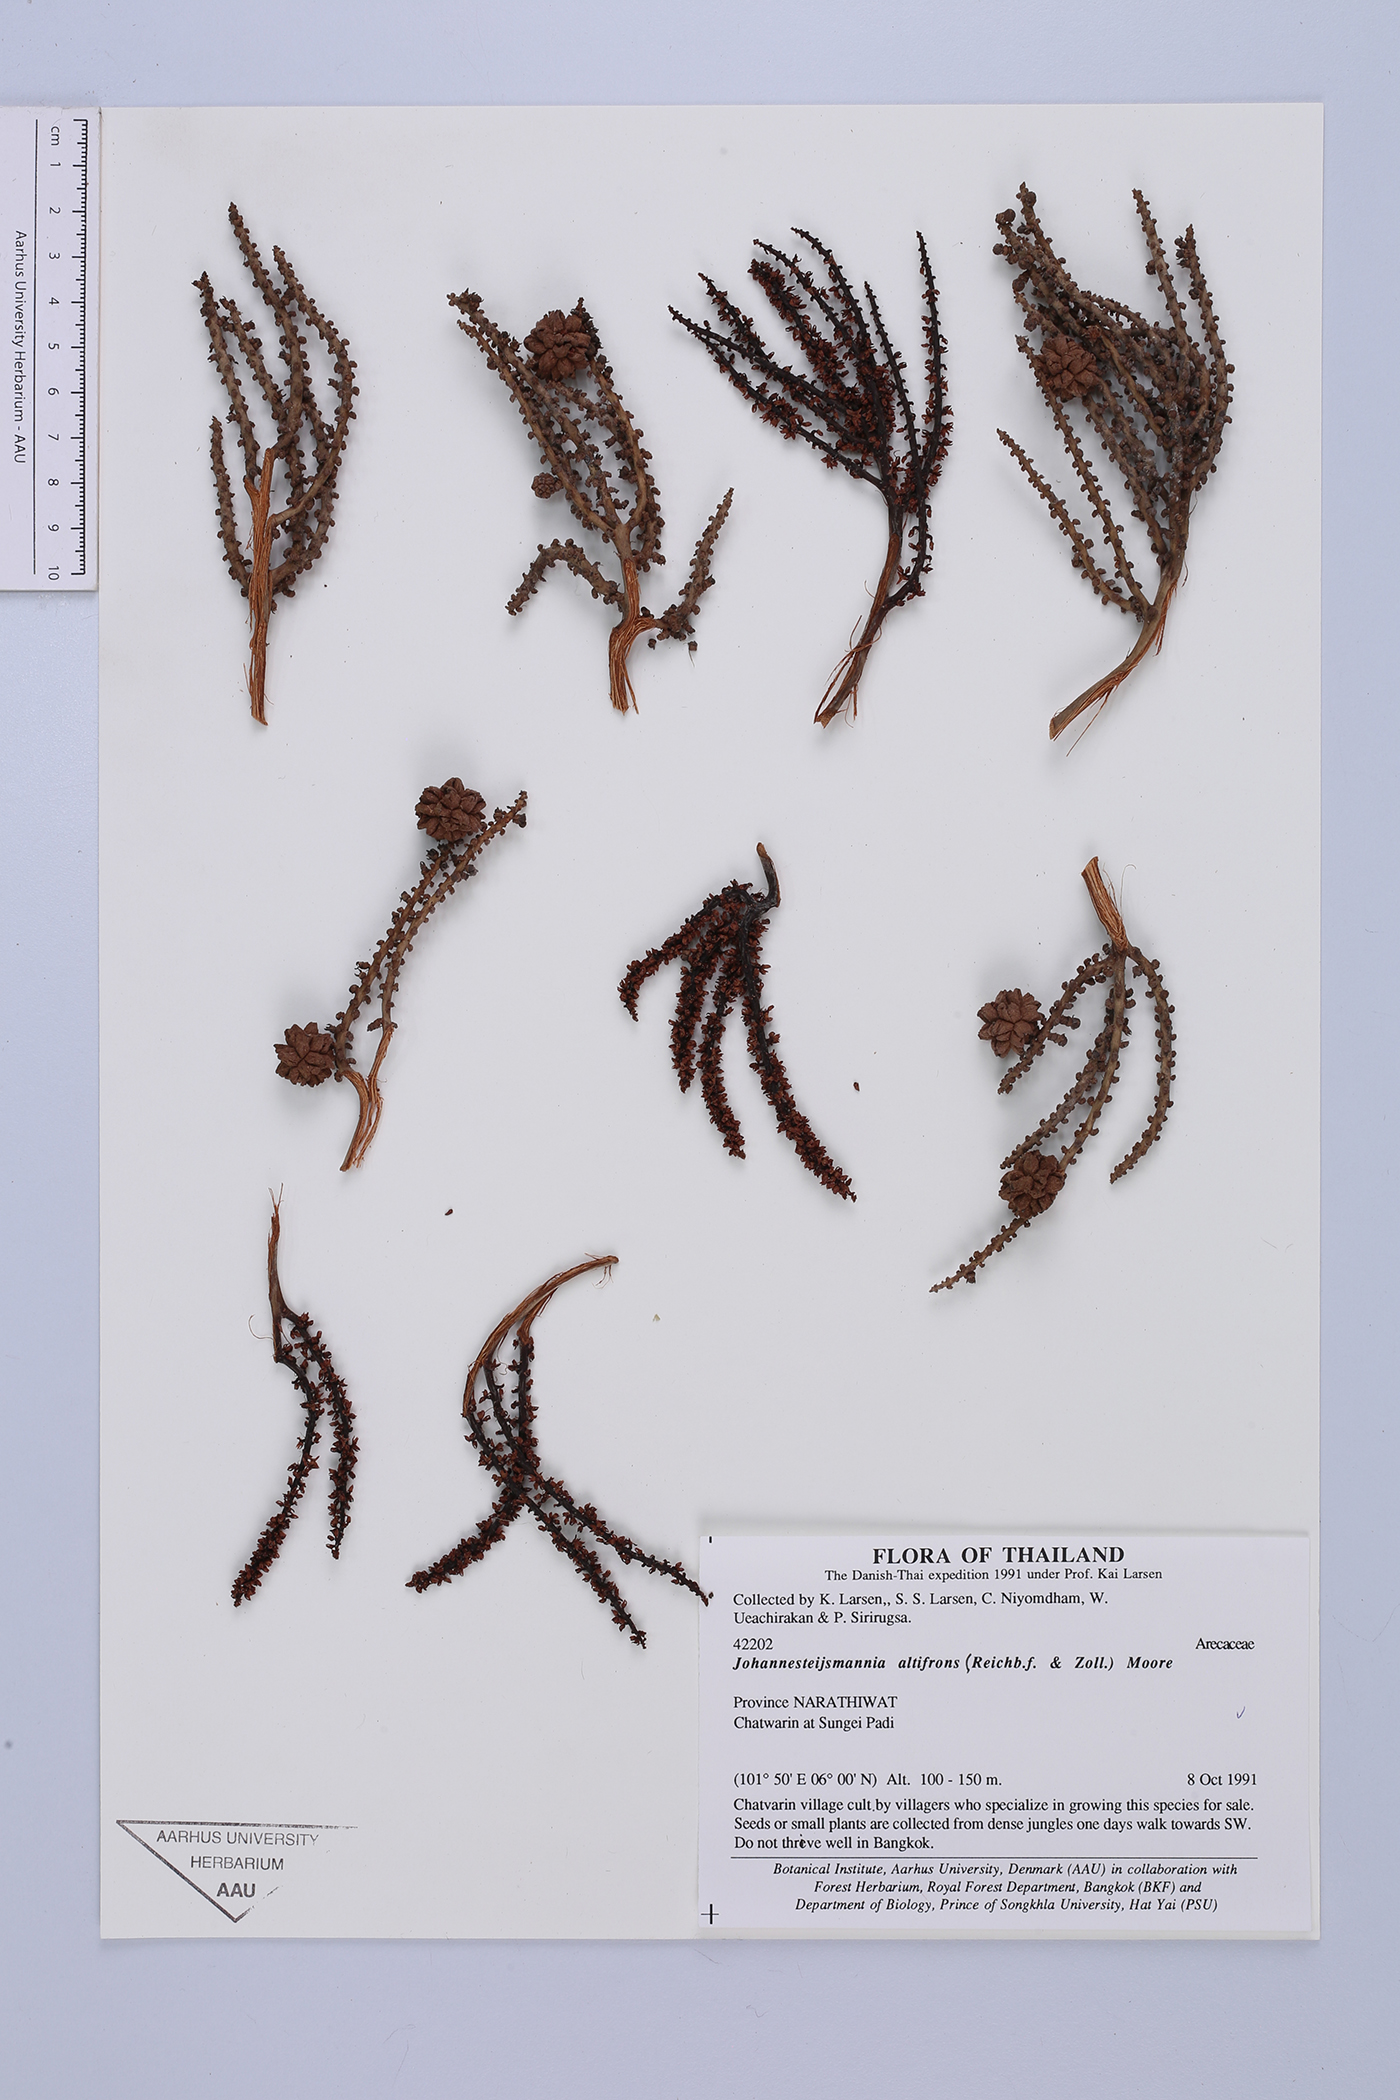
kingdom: Plantae
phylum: Tracheophyta
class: Liliopsida
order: Arecales
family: Arecaceae
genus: Johannesteijsmannia
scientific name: Johannesteijsmannia altifrons
